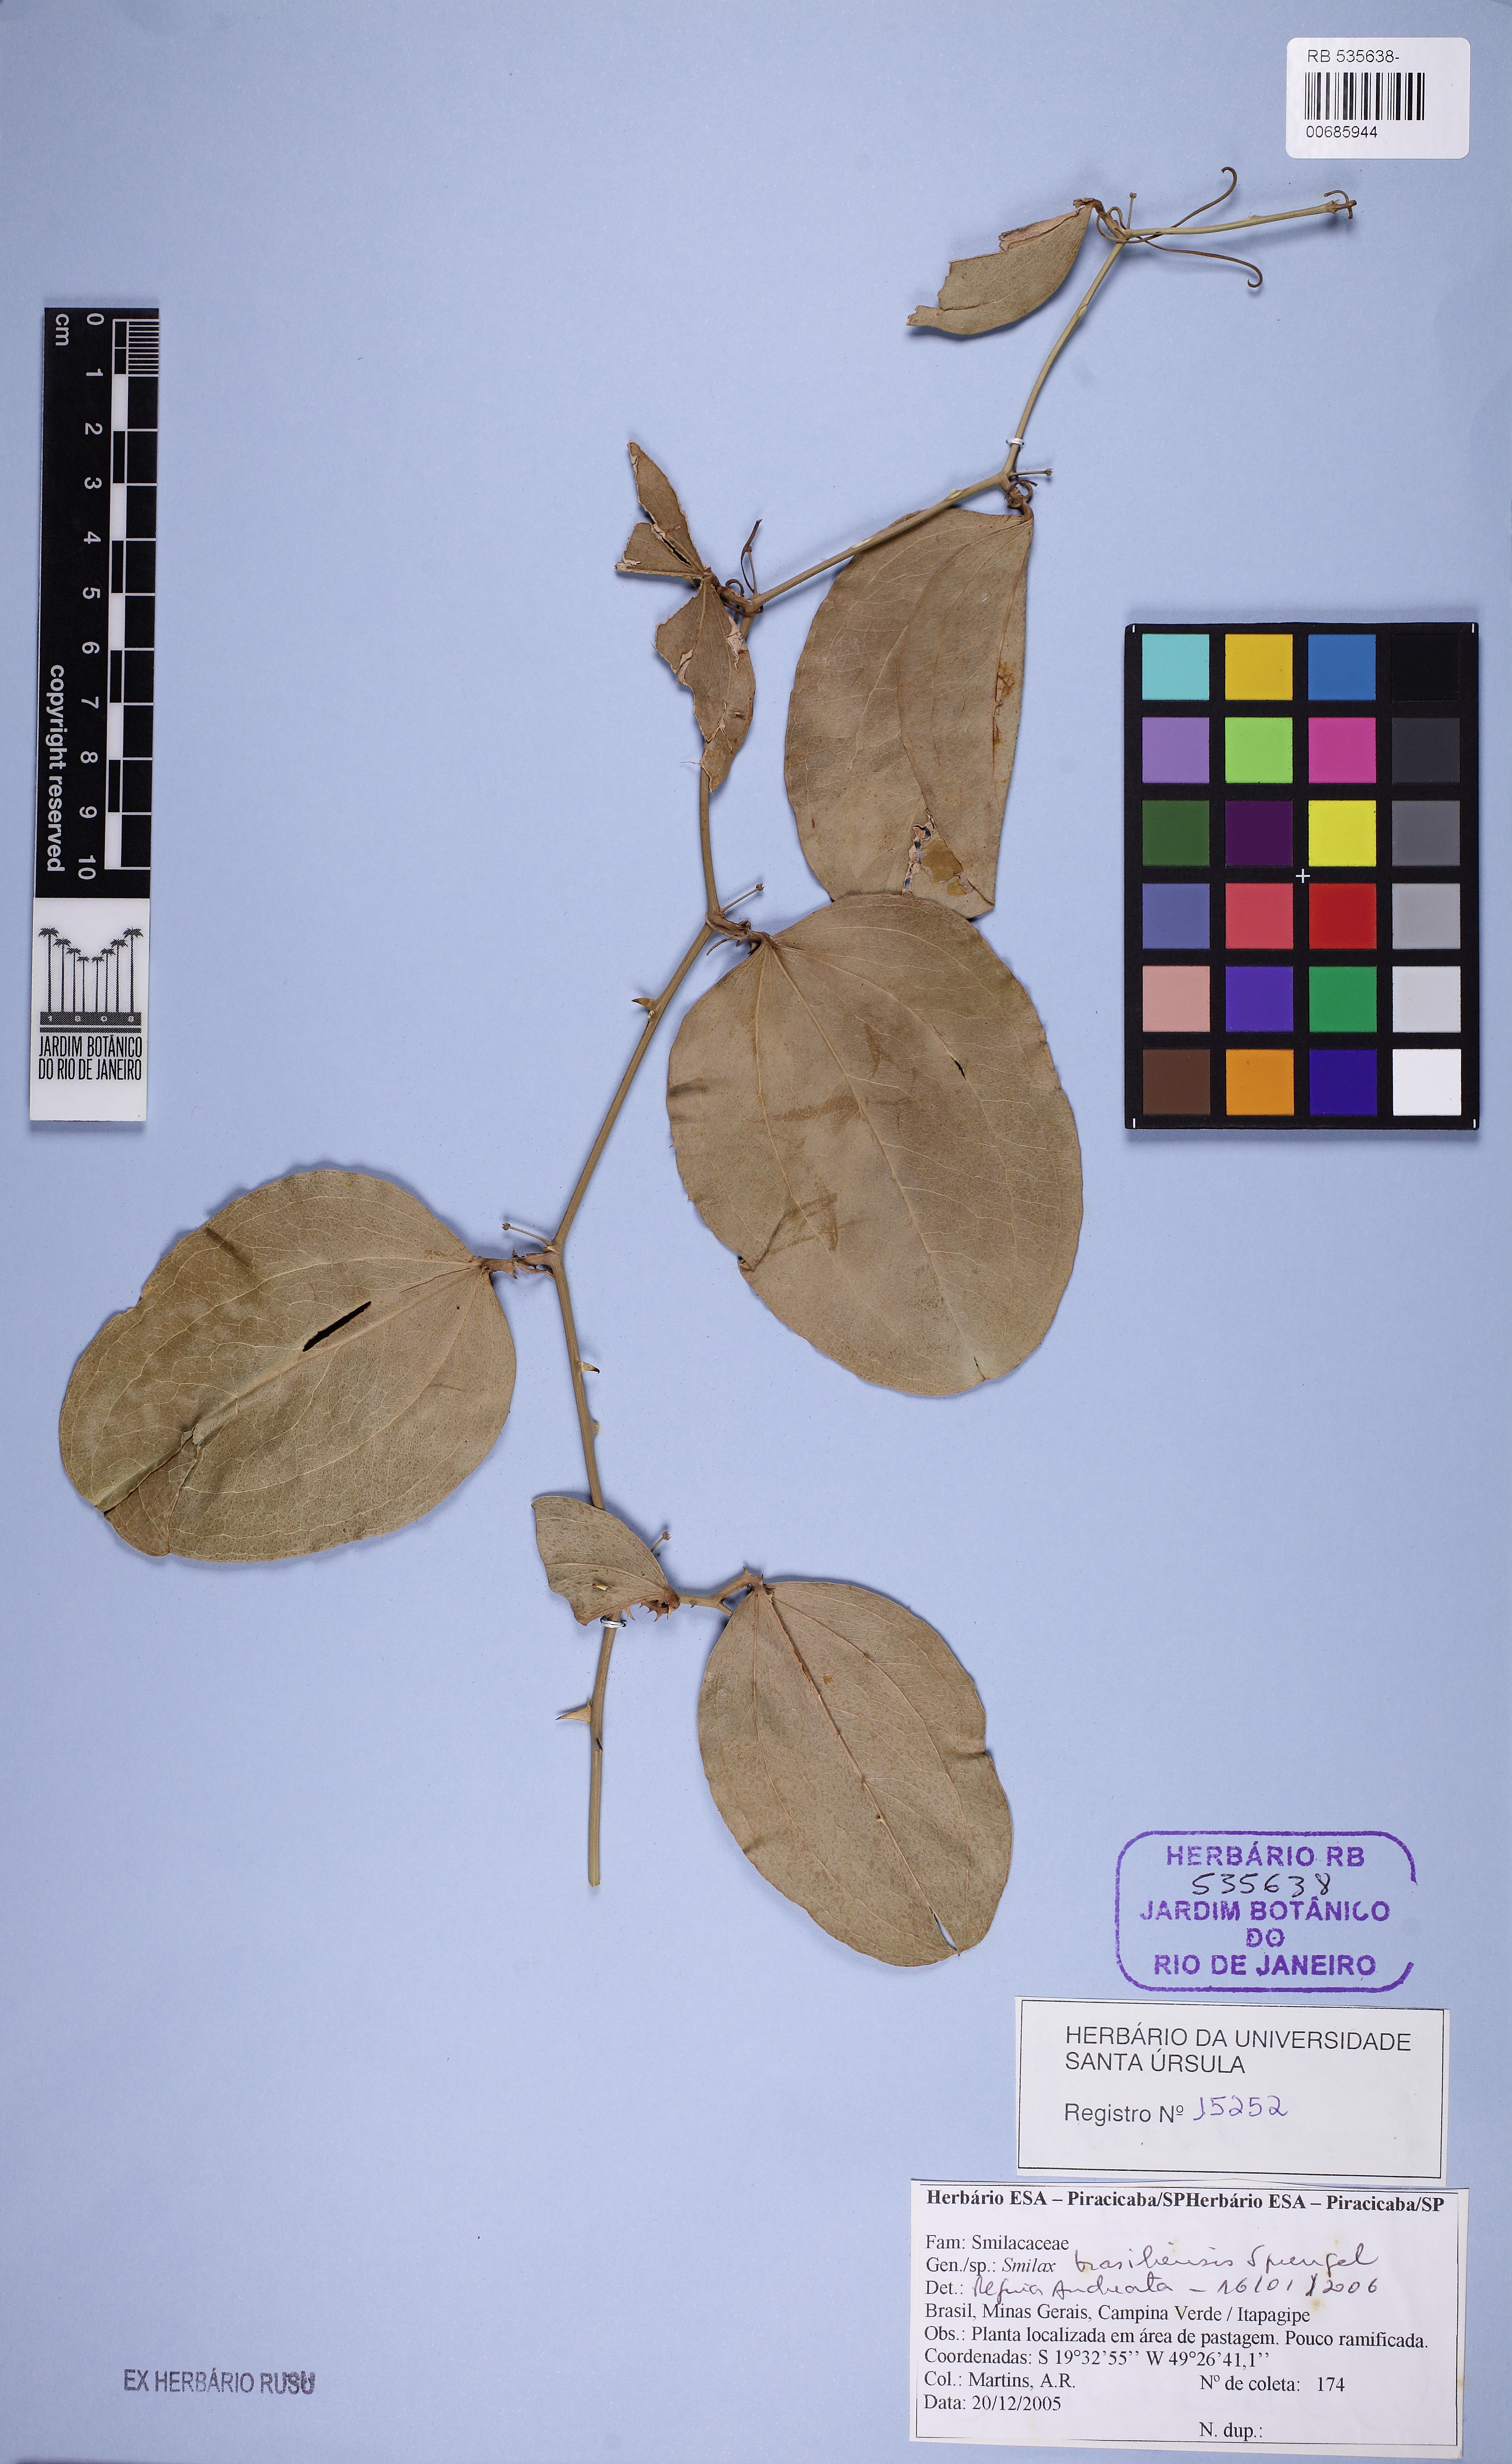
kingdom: Plantae
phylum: Tracheophyta
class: Liliopsida
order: Liliales
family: Smilacaceae
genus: Smilax
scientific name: Smilax brasiliensis
